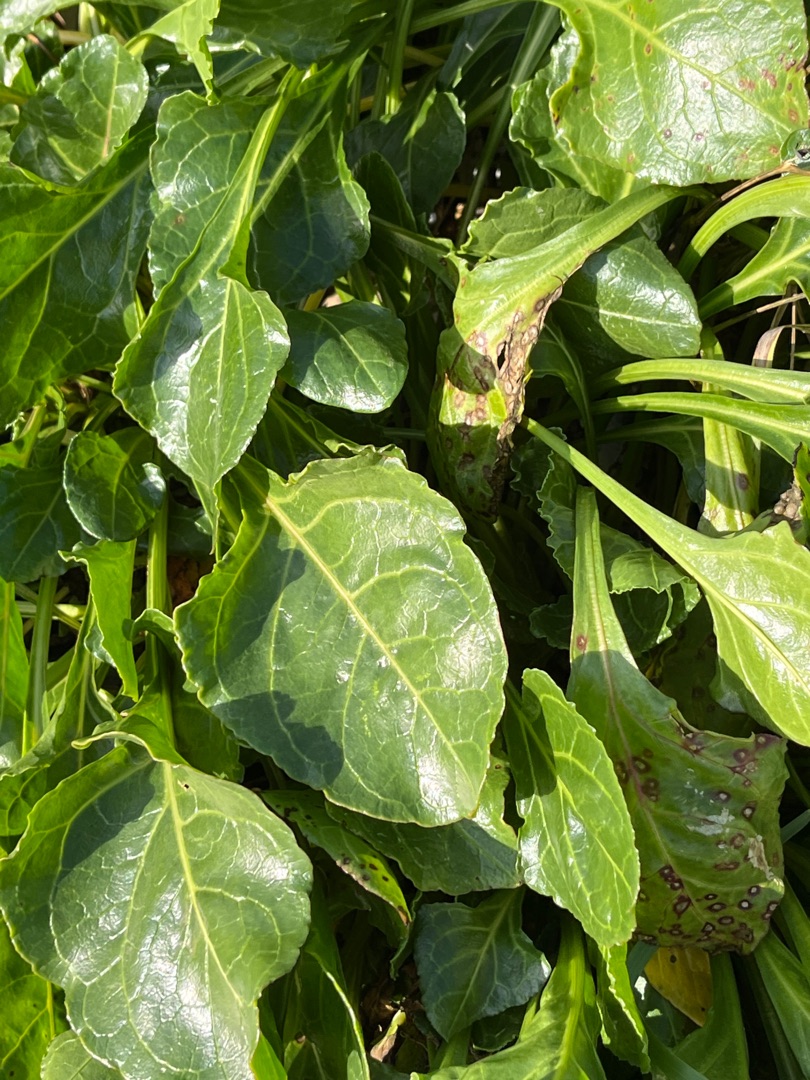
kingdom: Plantae
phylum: Tracheophyta
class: Magnoliopsida
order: Caryophyllales
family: Amaranthaceae
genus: Beta
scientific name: Beta maritima
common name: Strand-bede
